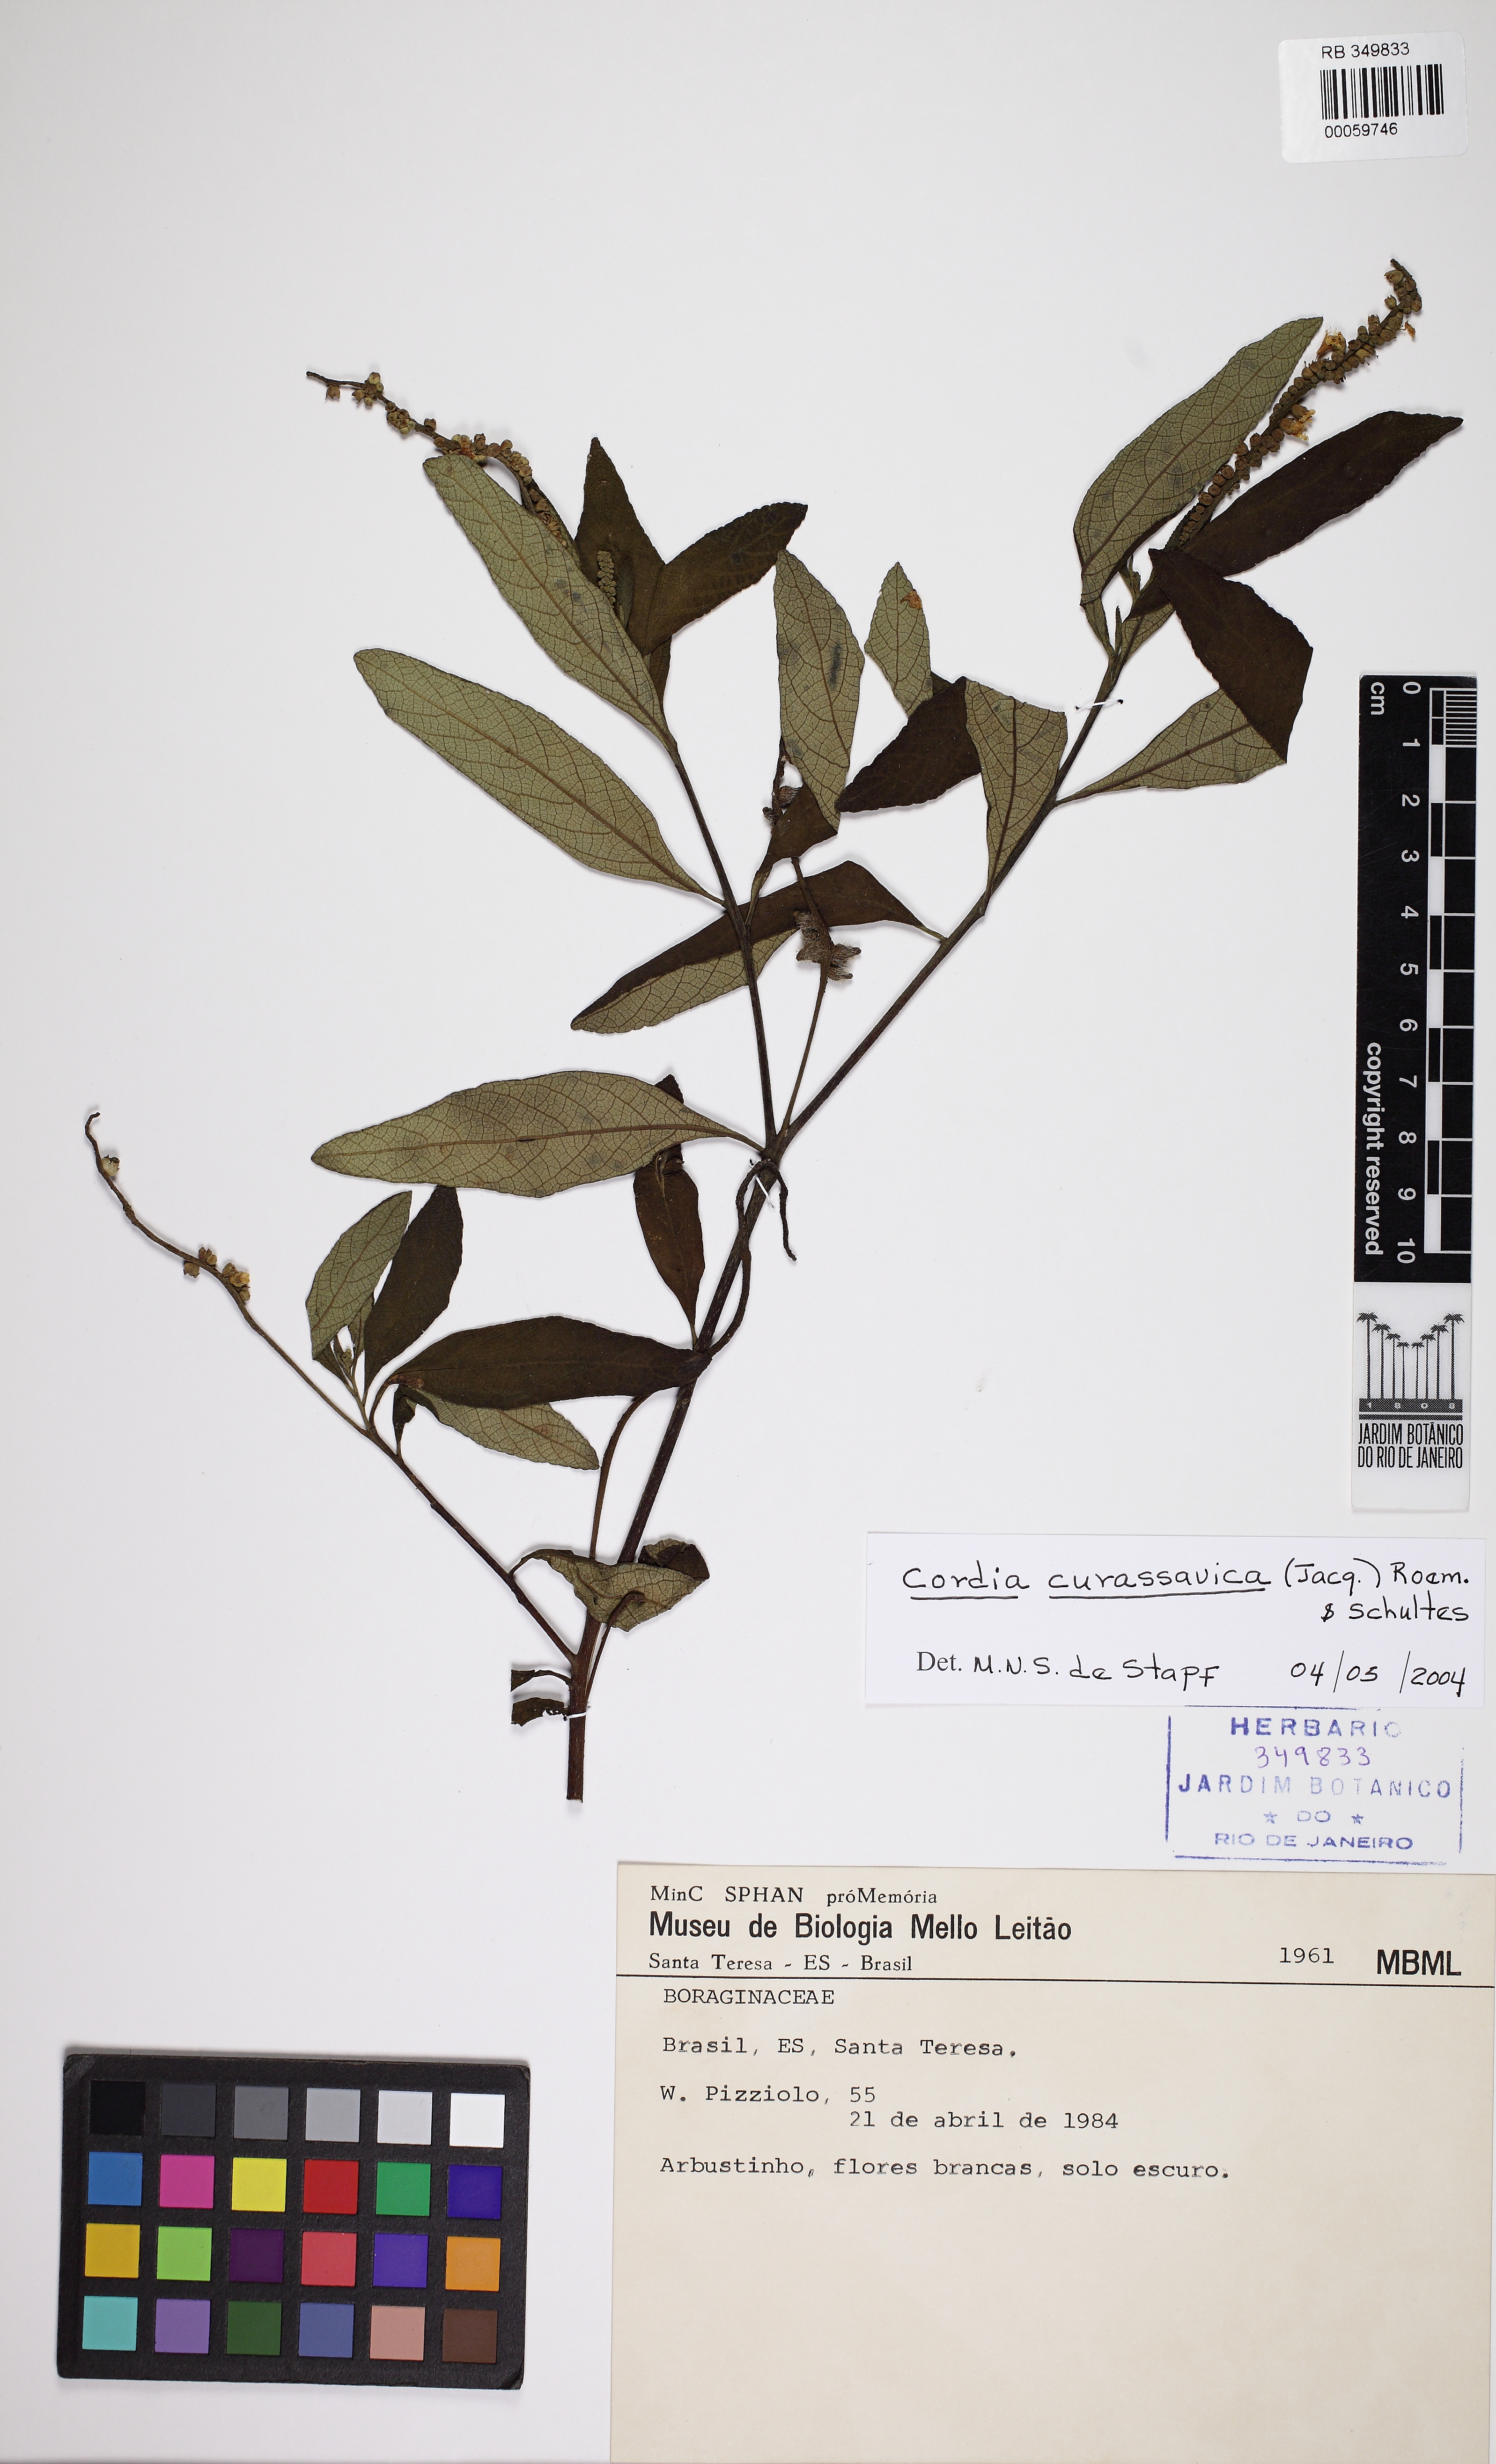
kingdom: Plantae
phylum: Tracheophyta
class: Magnoliopsida
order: Boraginales
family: Cordiaceae
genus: Varronia
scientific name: Varronia curassavica
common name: Black sage
